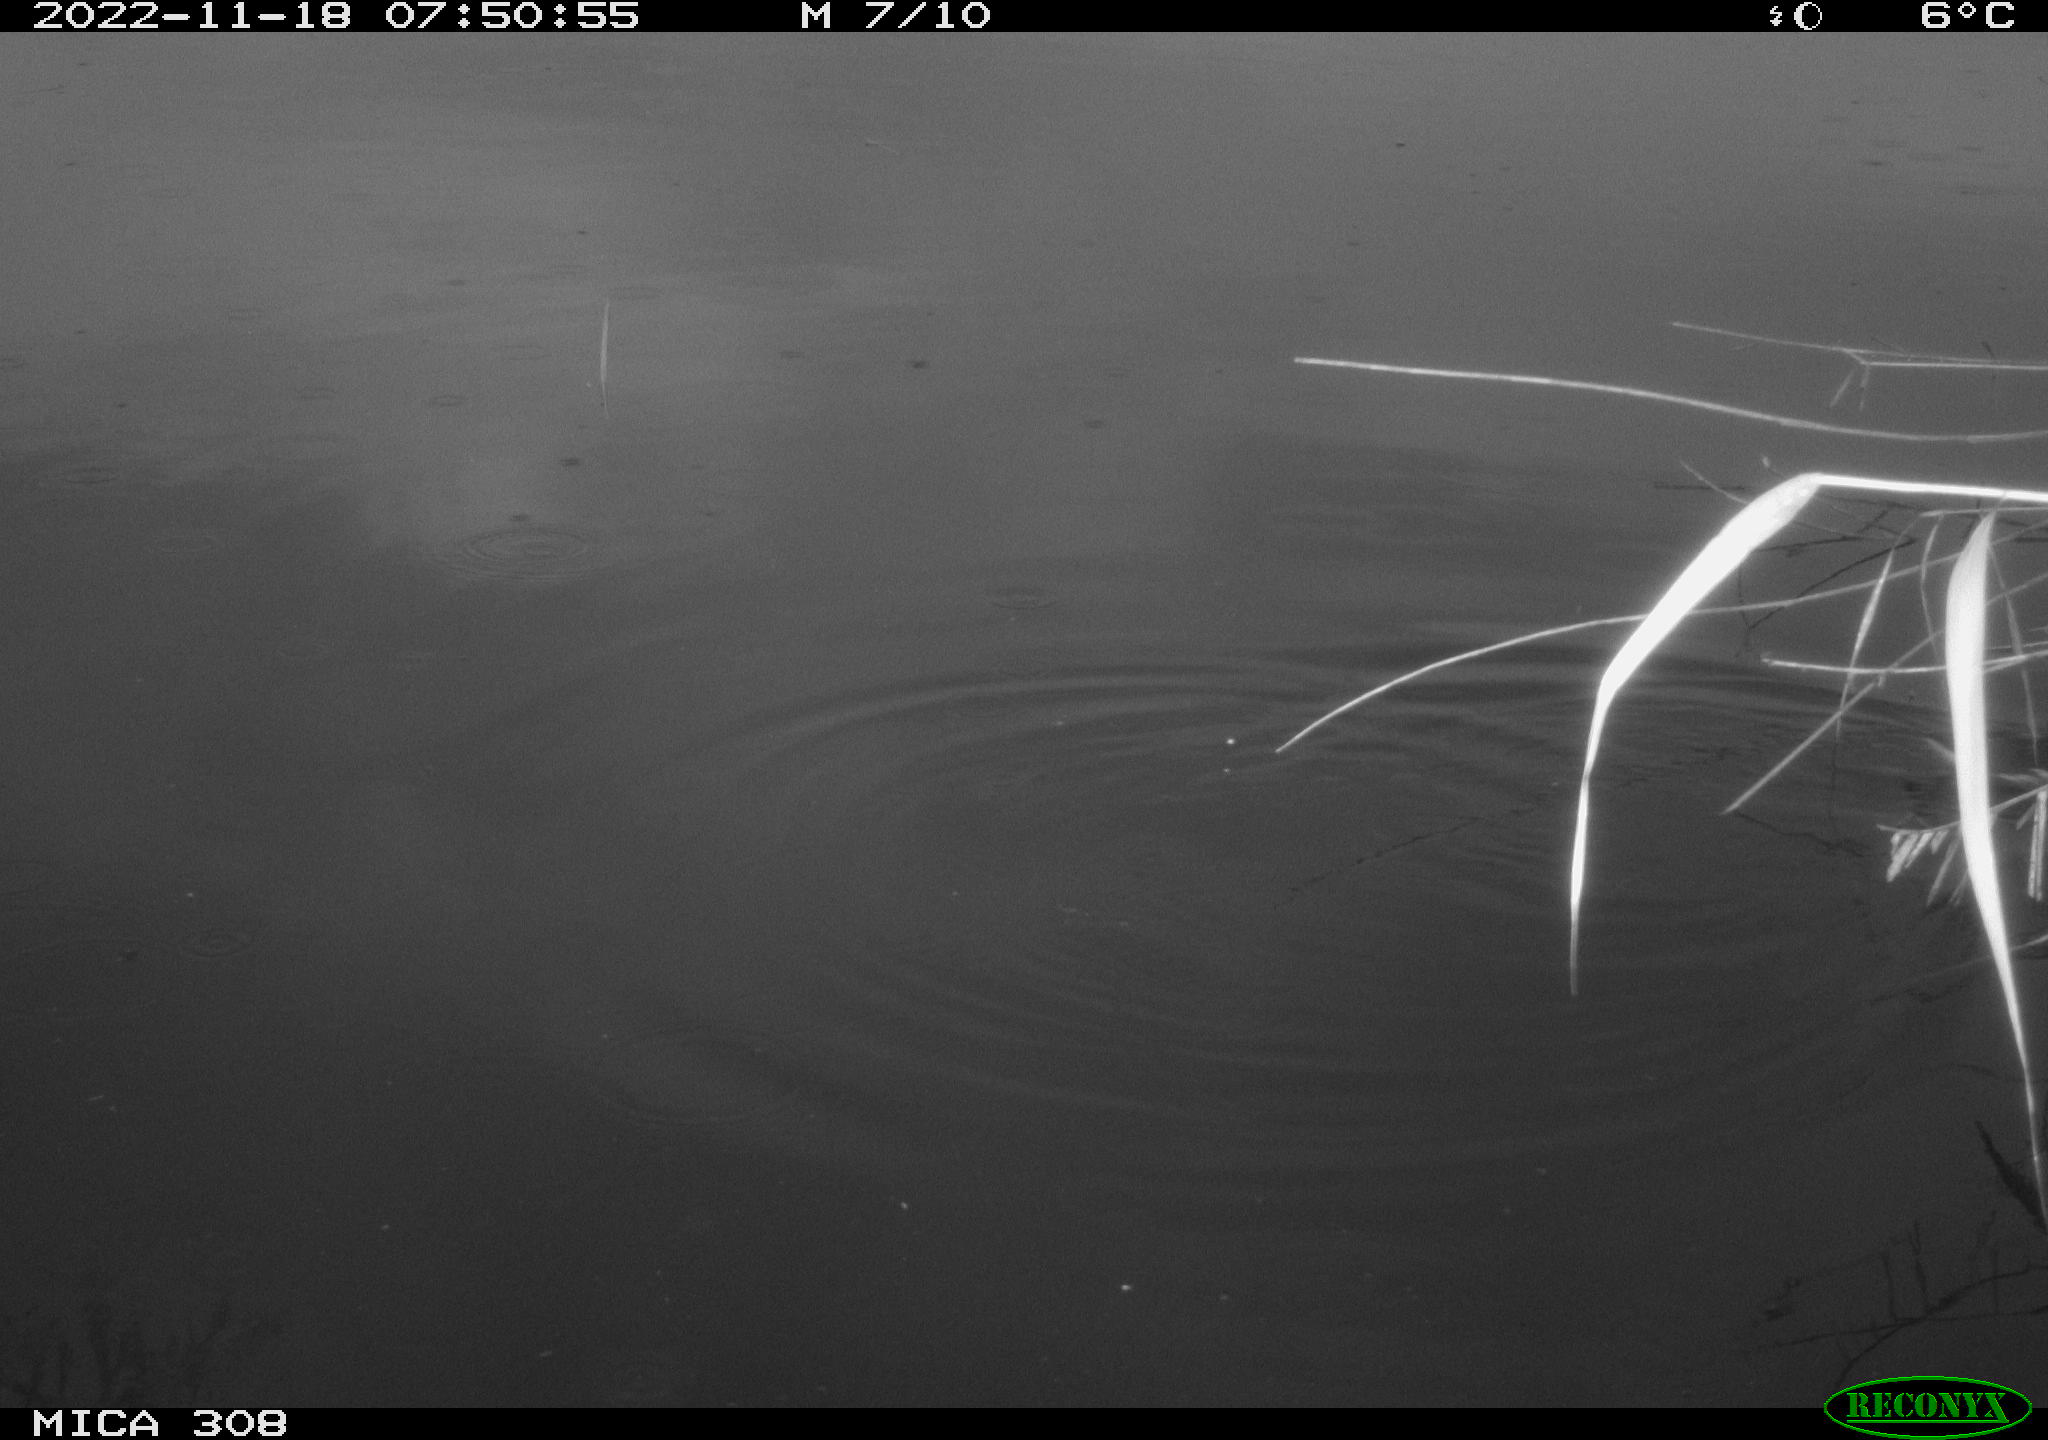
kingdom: Animalia
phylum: Chordata
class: Aves
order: Gruiformes
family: Rallidae
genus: Gallinula
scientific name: Gallinula chloropus
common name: Common moorhen
